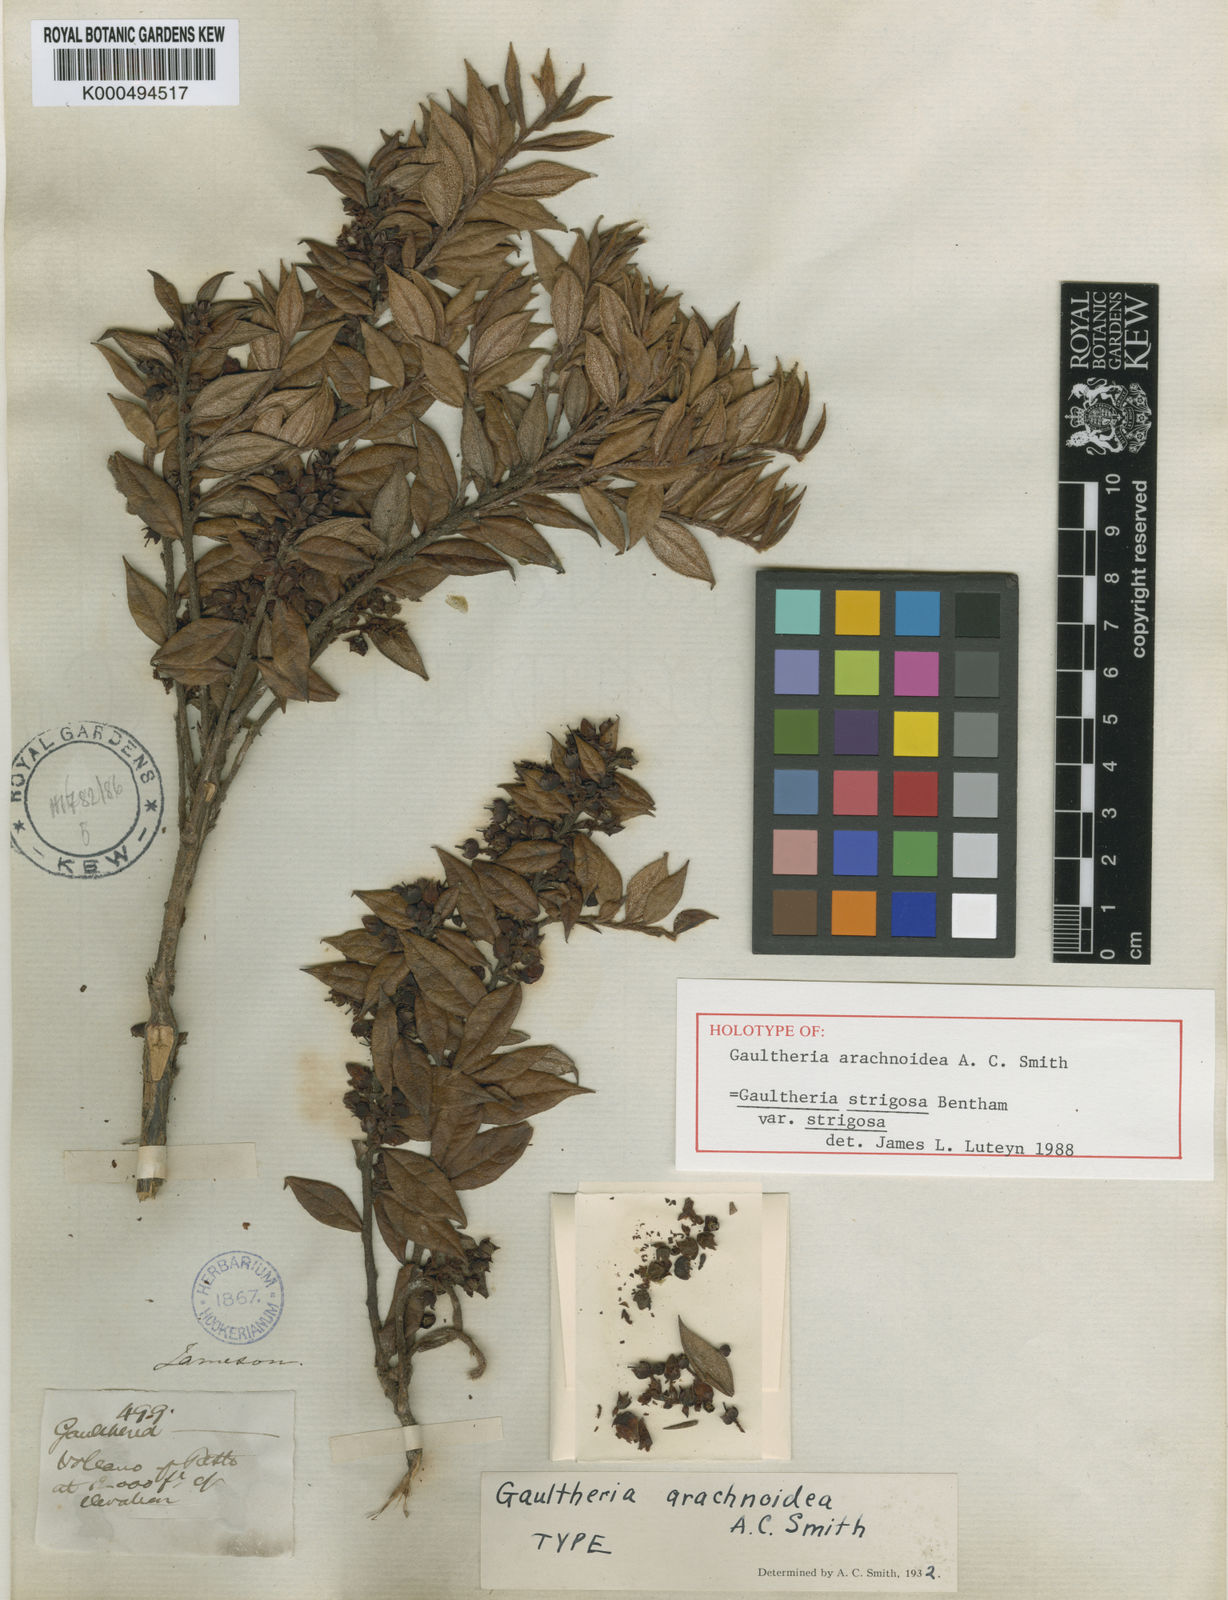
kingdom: Plantae
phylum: Tracheophyta
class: Magnoliopsida
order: Ericales
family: Ericaceae
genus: Gaultheria
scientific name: Gaultheria strigosa
